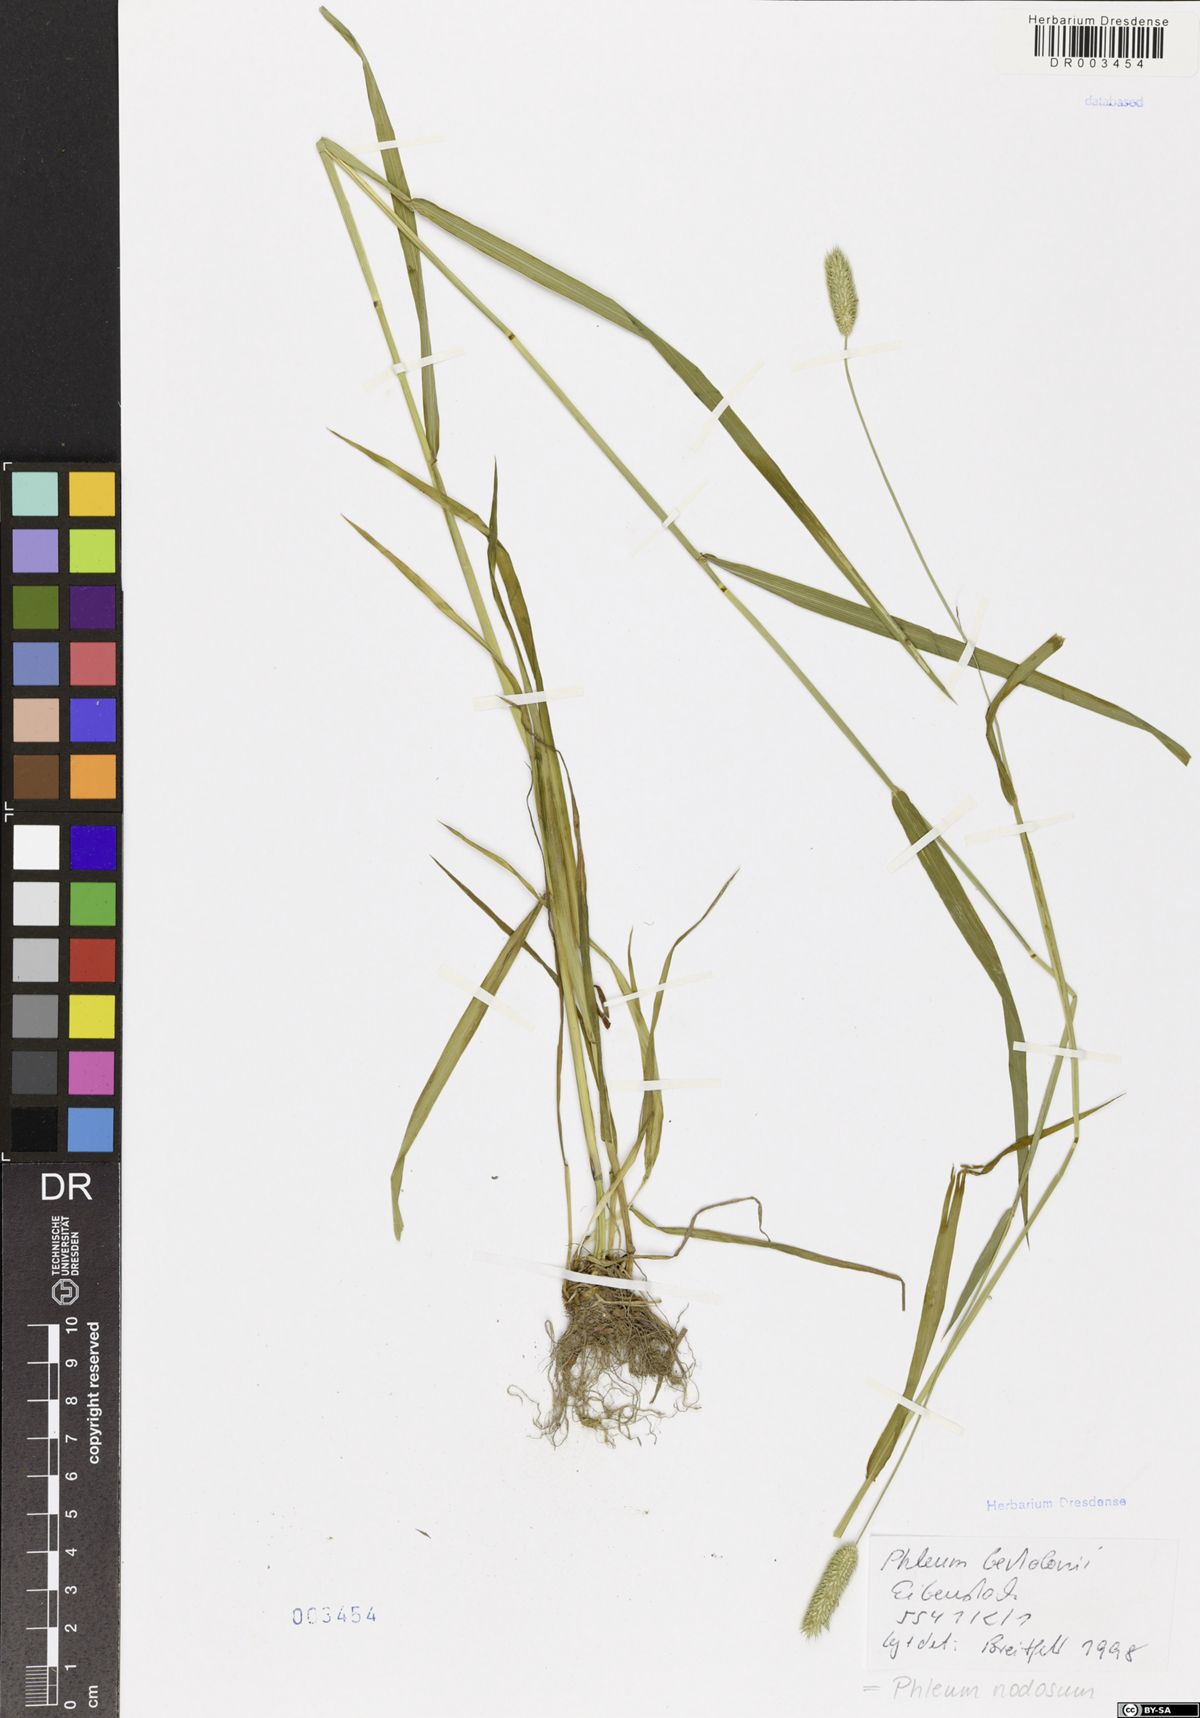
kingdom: Plantae
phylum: Tracheophyta
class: Liliopsida
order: Poales
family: Poaceae
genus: Phleum
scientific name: Phleum pratense
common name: Timothy grass
